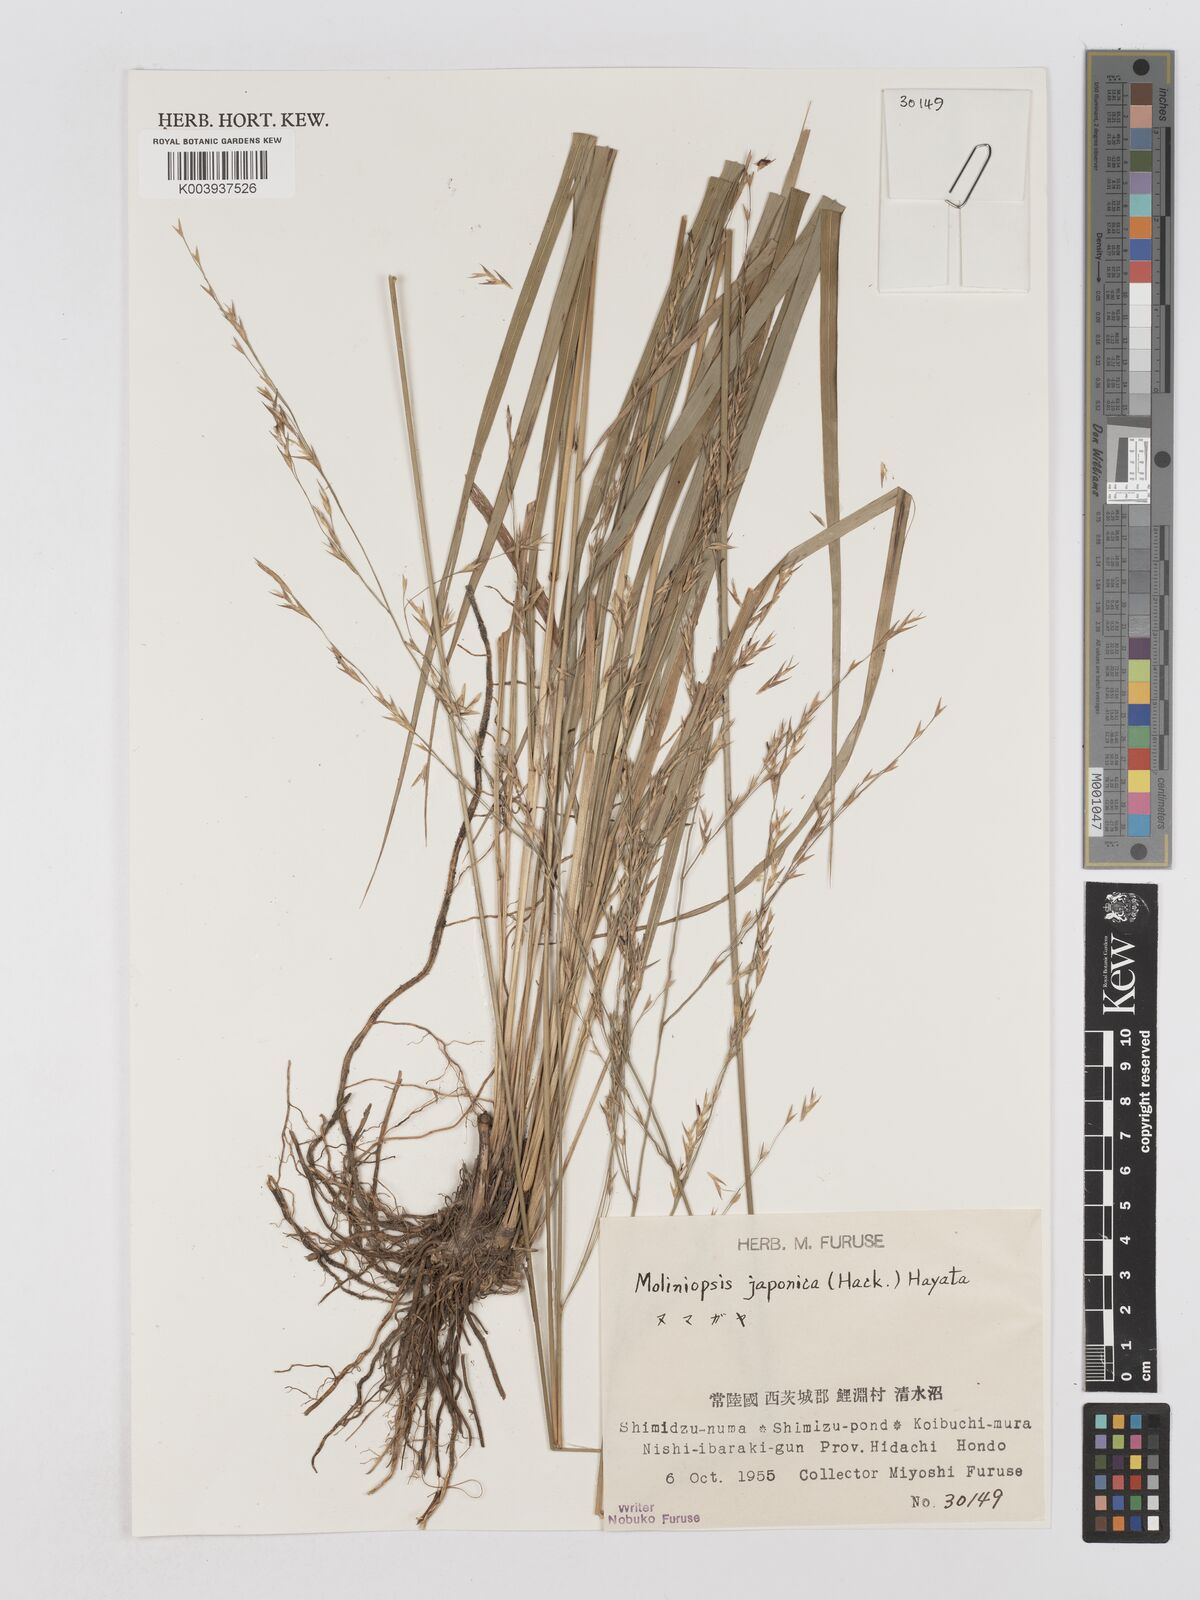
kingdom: Plantae
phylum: Tracheophyta
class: Liliopsida
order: Poales
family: Poaceae
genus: Moliniopsis
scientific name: Moliniopsis japonica
